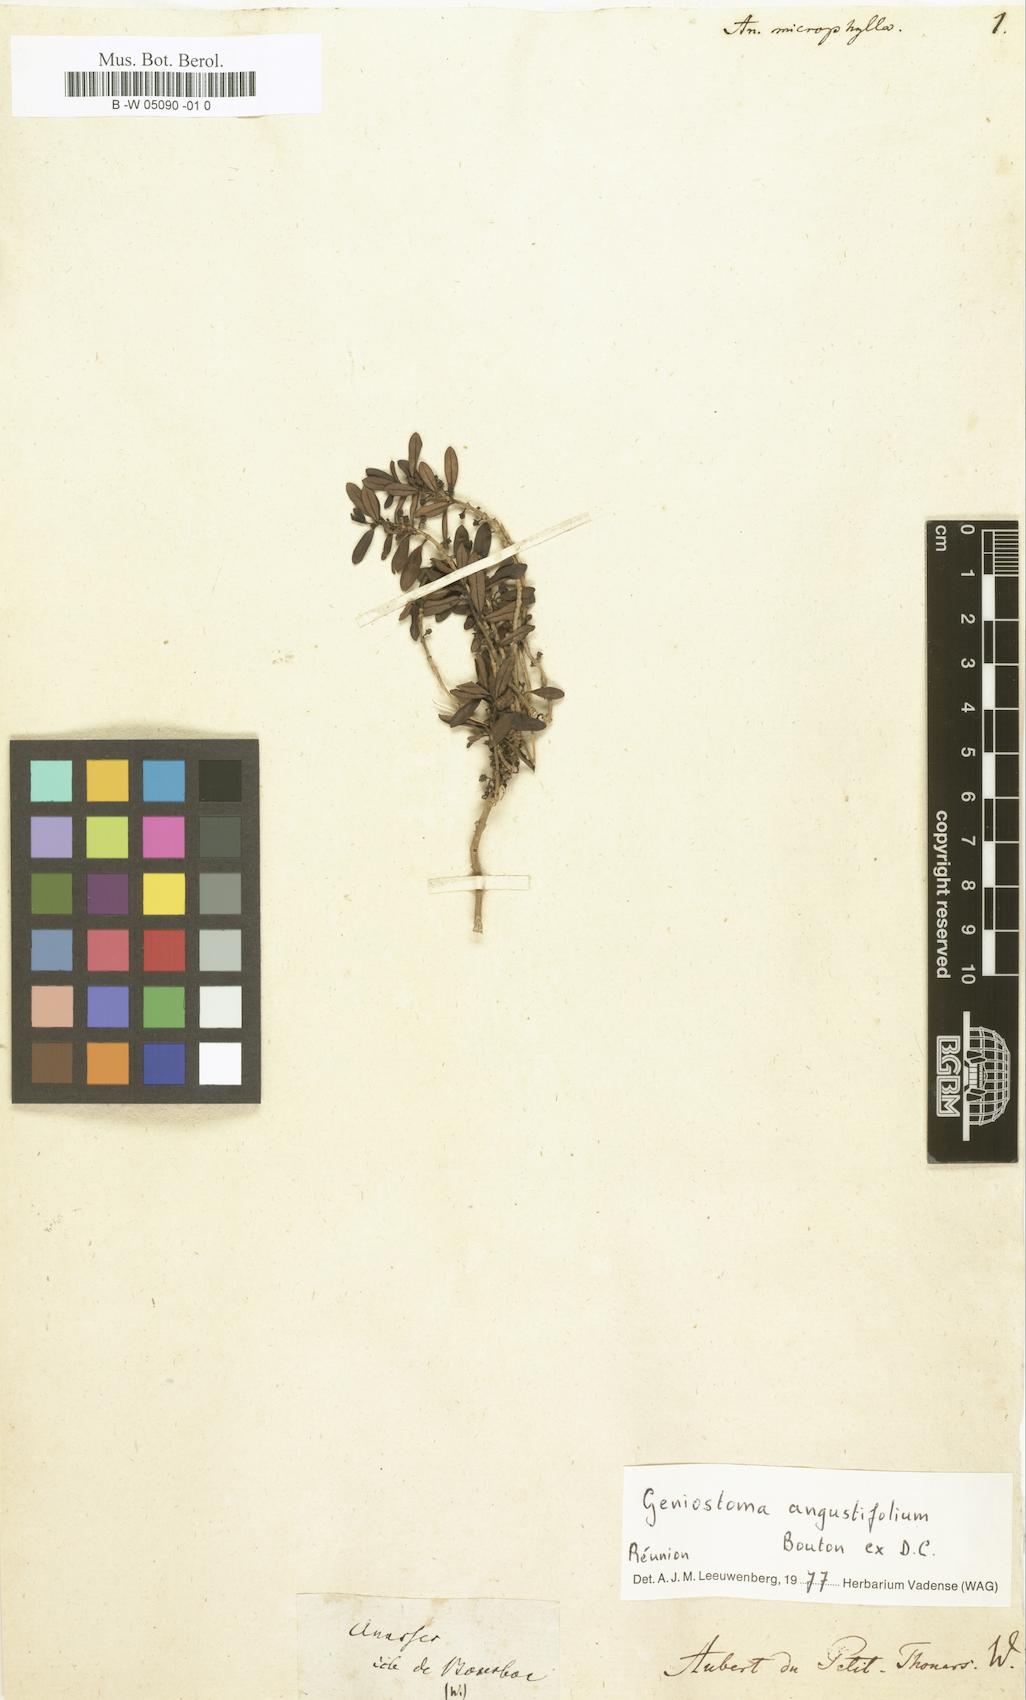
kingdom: Plantae
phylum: Tracheophyta
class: Magnoliopsida
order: Gentianales
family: Loganiaceae
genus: Anassera
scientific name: Anassera
